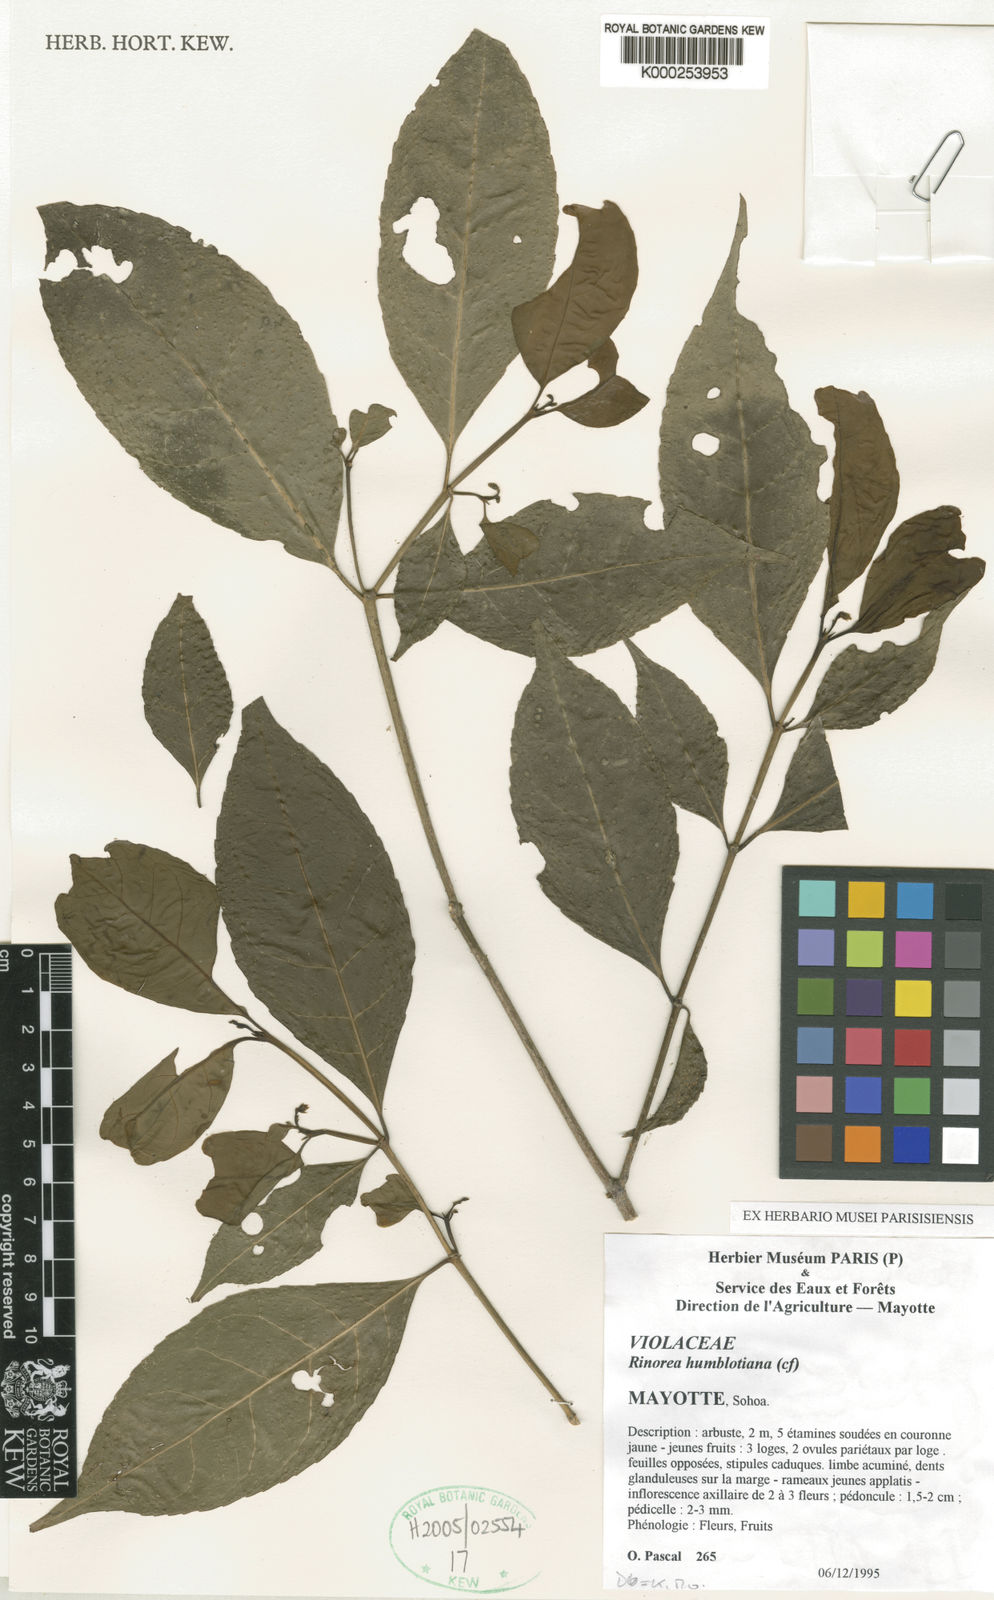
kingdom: Plantae
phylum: Tracheophyta
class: Magnoliopsida
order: Malpighiales
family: Violaceae
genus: Rinorea
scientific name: Rinorea angustifolia
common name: White violet-bush
